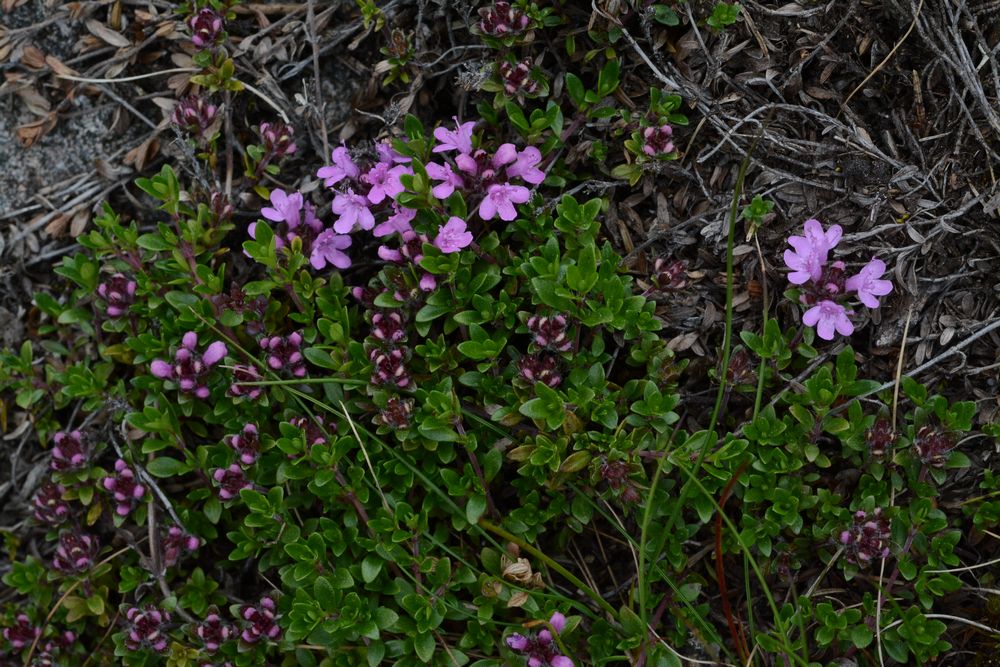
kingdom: Plantae
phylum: Tracheophyta
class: Magnoliopsida
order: Lamiales
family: Lamiaceae
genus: Thymus
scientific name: Thymus serpyllum
